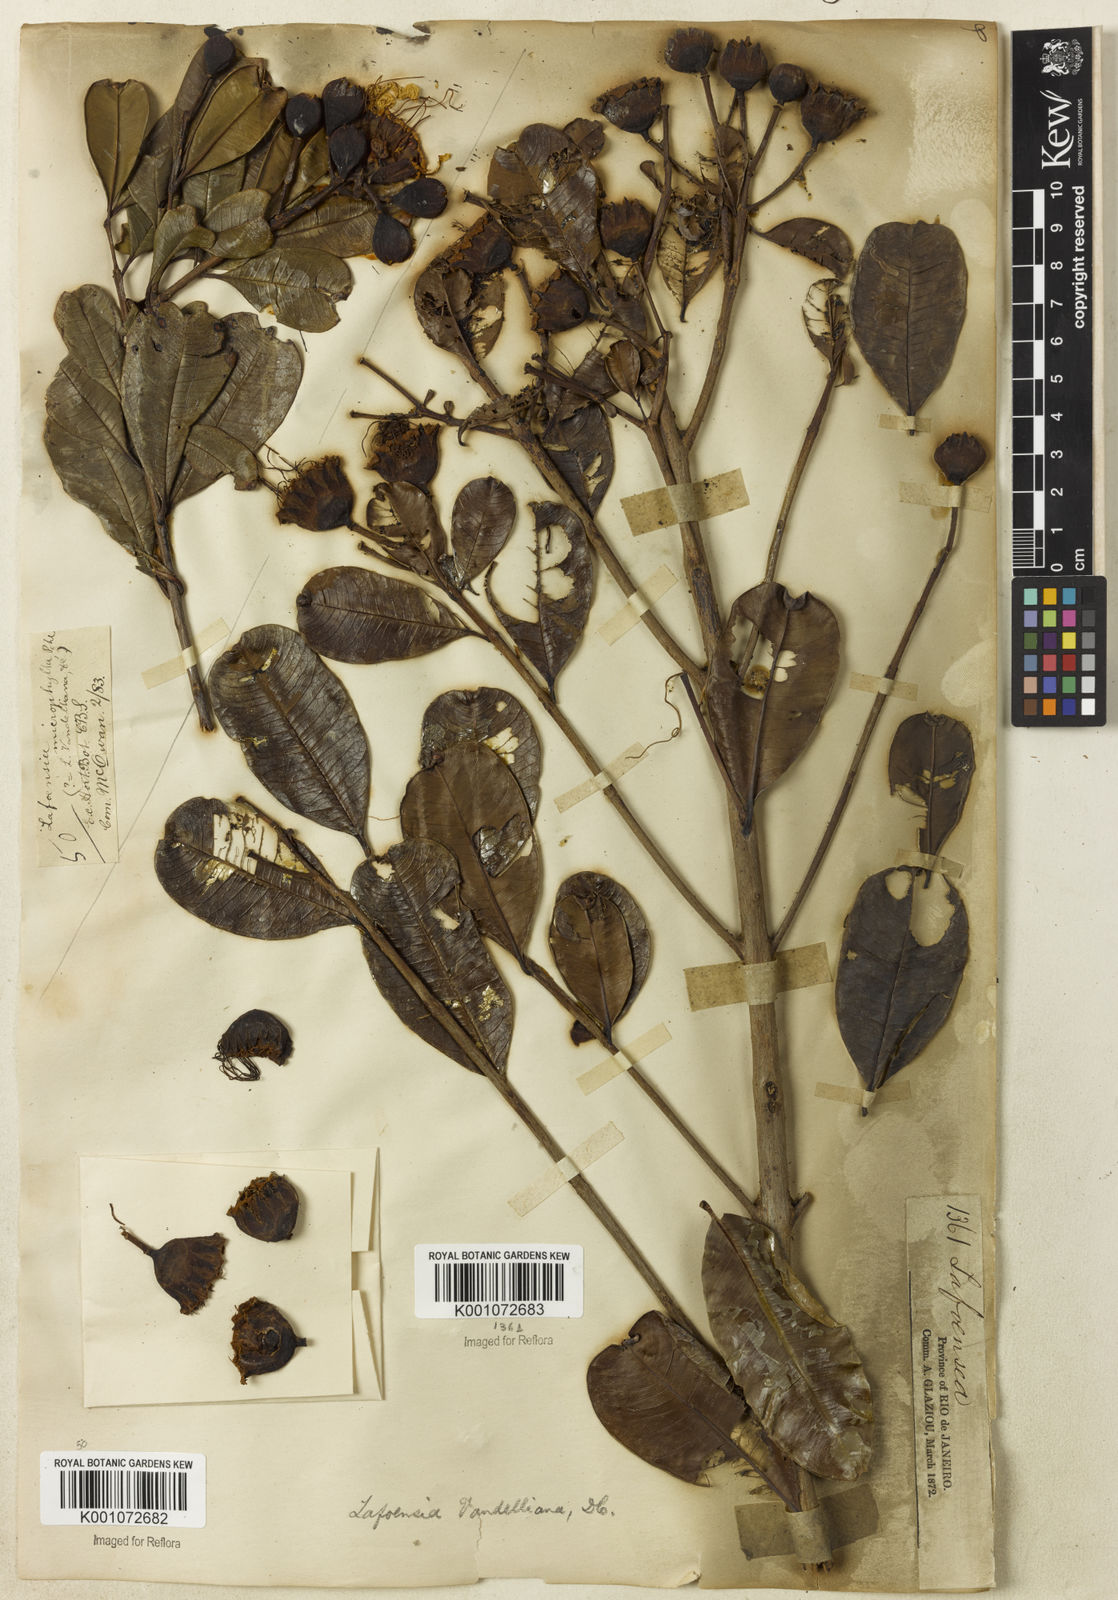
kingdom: Plantae
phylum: Tracheophyta
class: Magnoliopsida
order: Myrtales
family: Lythraceae
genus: Lafoensia
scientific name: Lafoensia vandelliana
